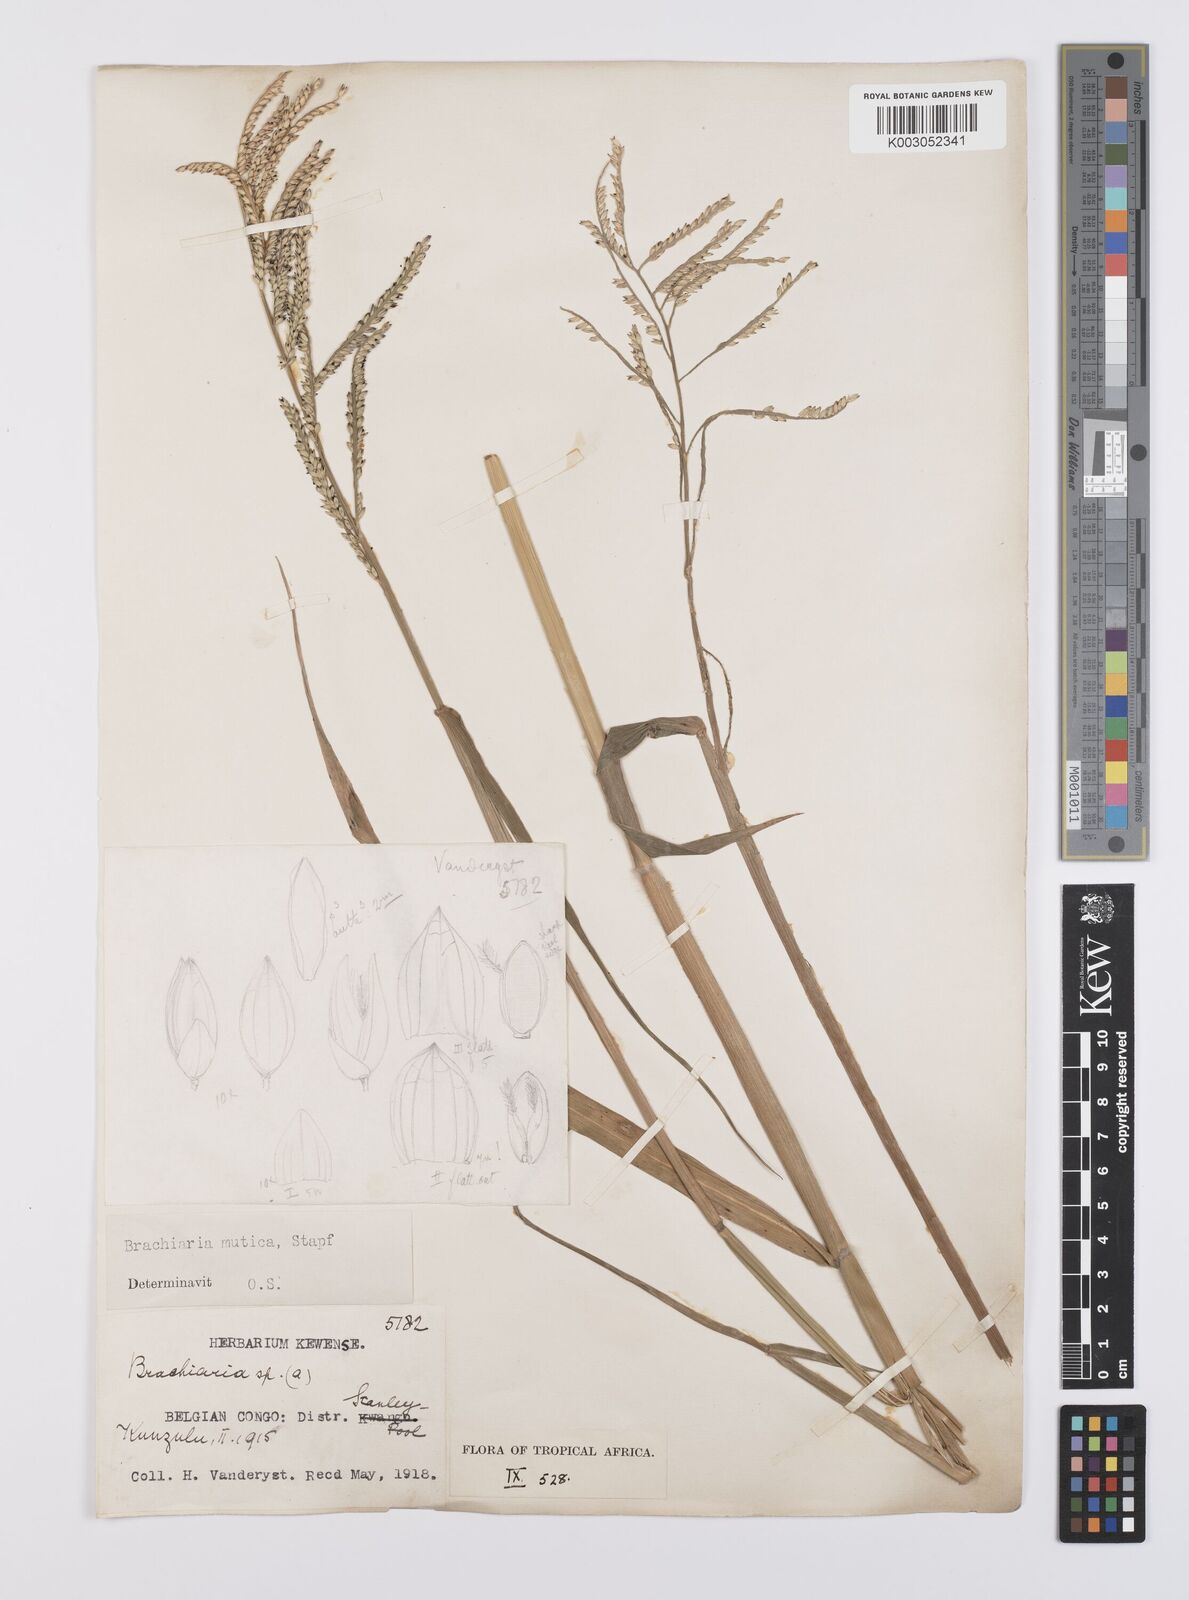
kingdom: Plantae
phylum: Tracheophyta
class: Liliopsida
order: Poales
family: Poaceae
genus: Urochloa
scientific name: Urochloa arrecta
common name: African signalgrass
